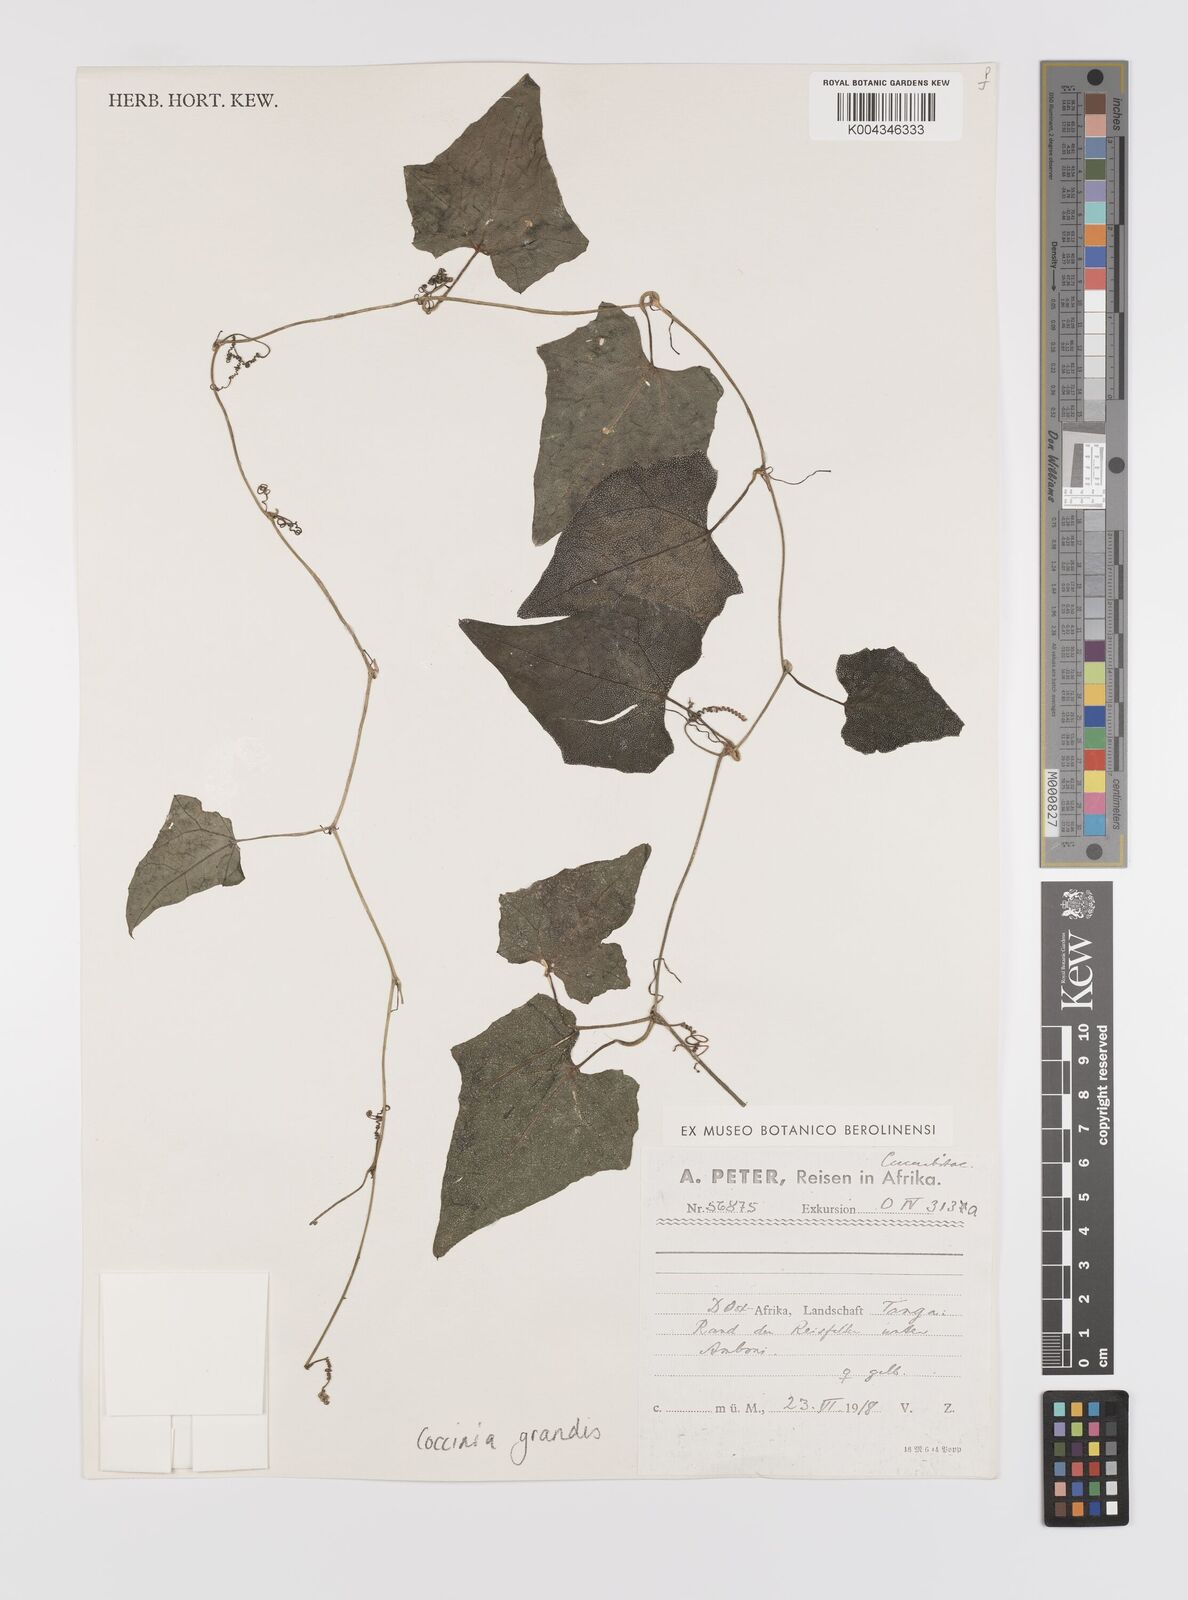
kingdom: Plantae
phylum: Tracheophyta
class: Magnoliopsida
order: Cucurbitales
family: Cucurbitaceae
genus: Coccinia
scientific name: Coccinia grandis
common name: Ivy gourd
